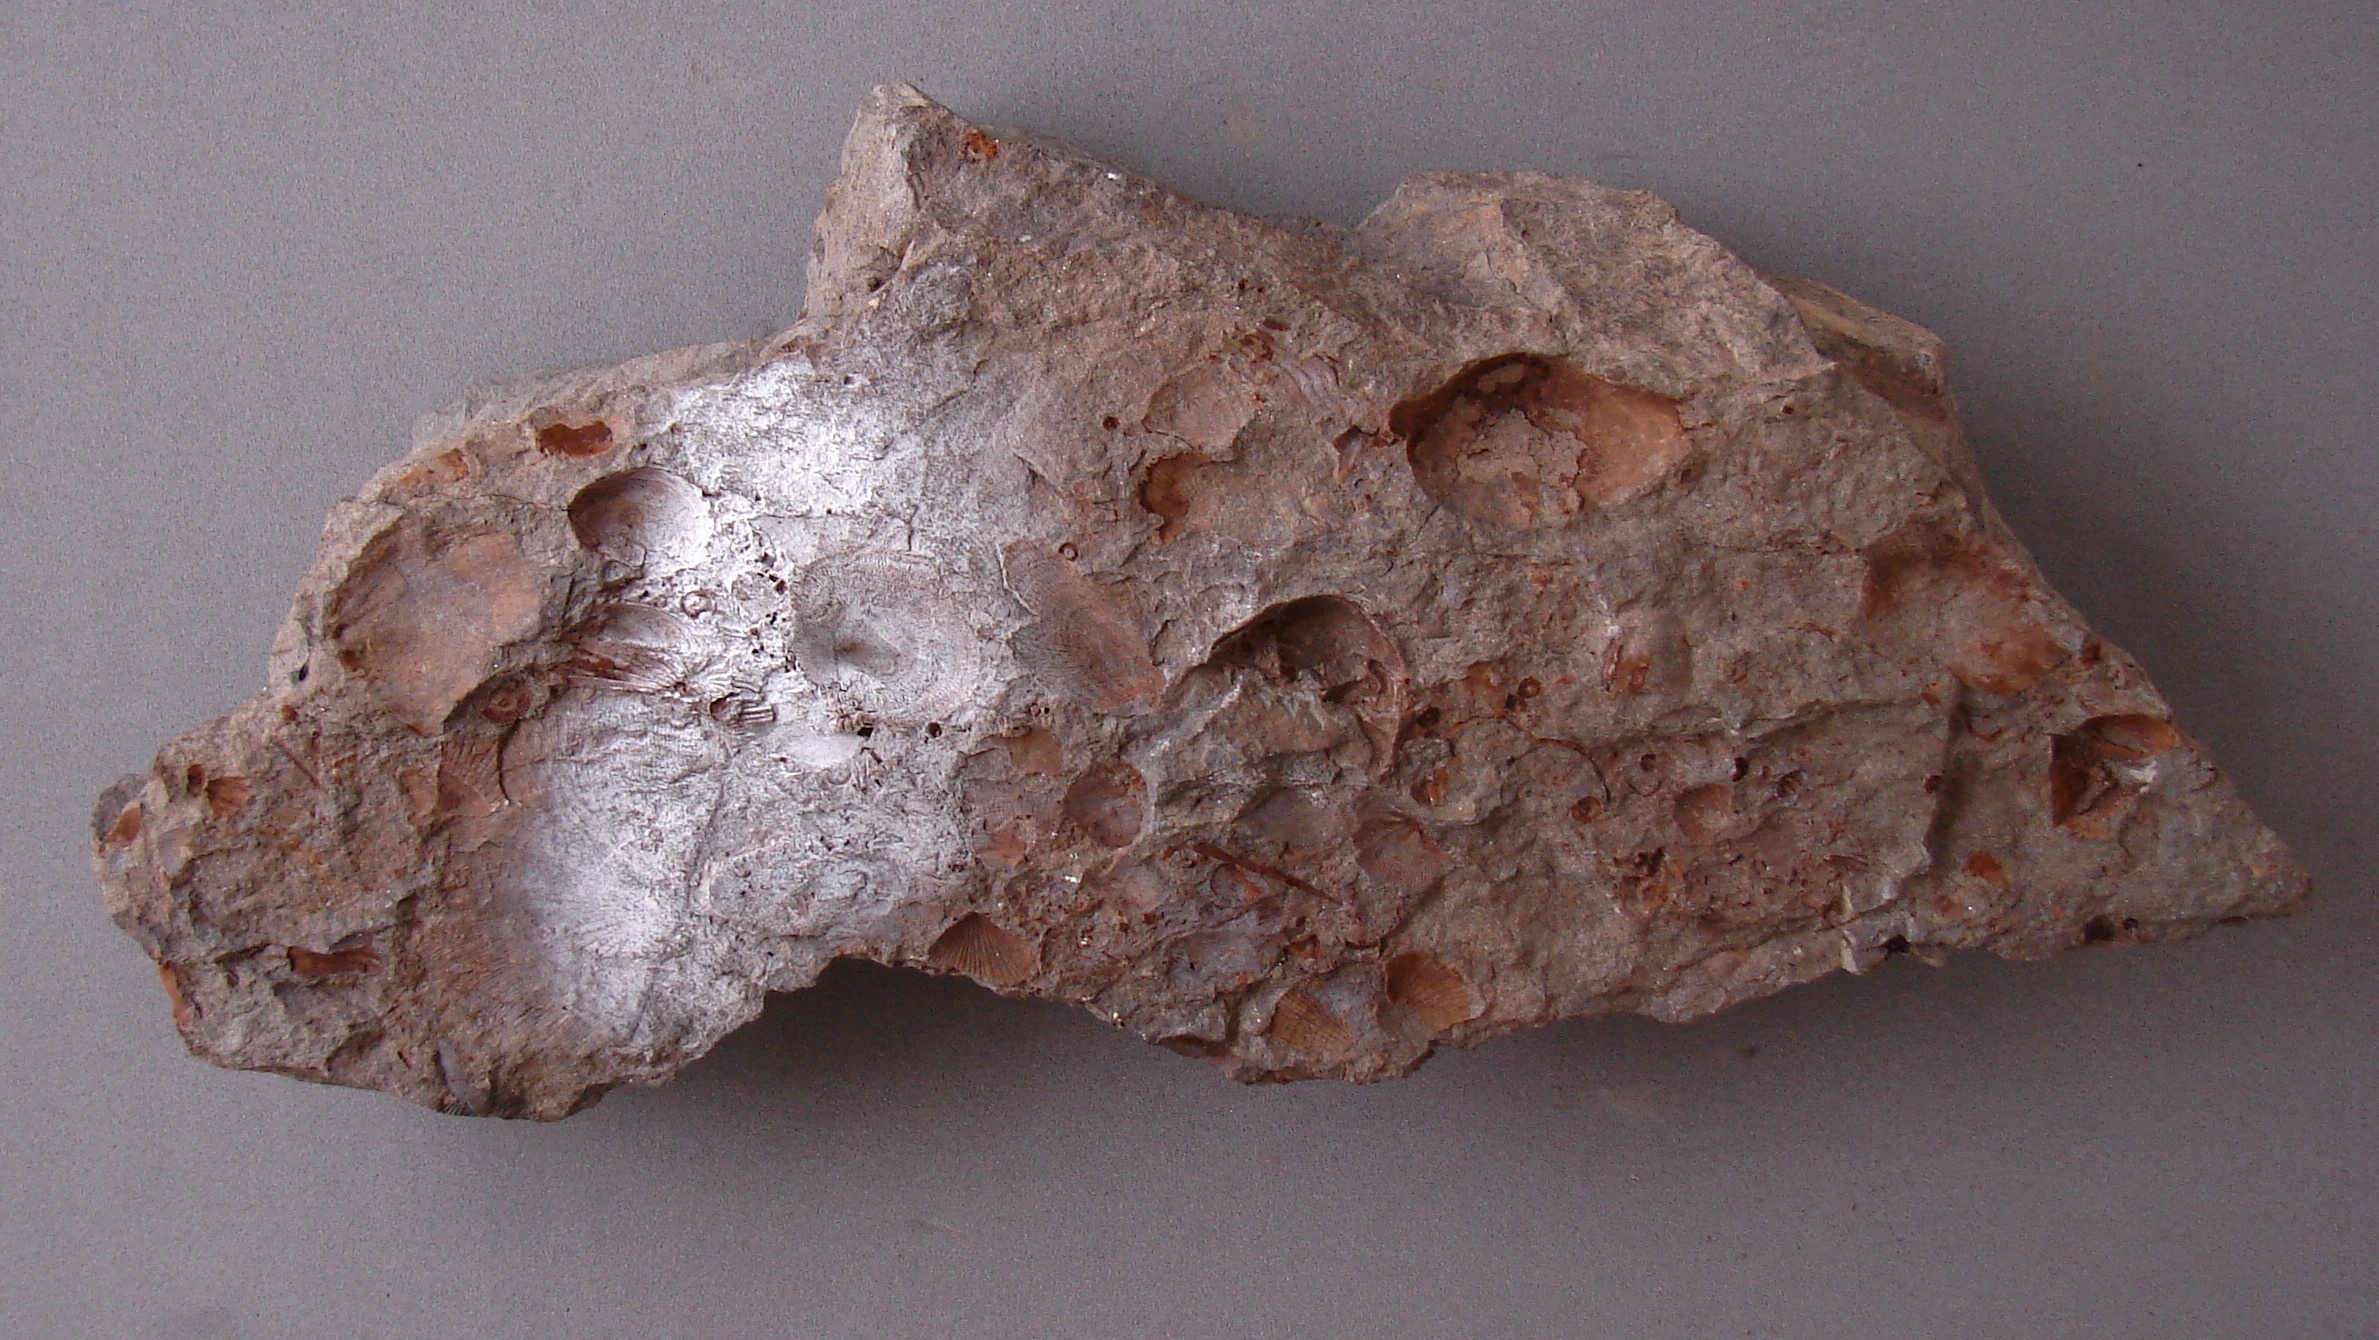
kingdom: Animalia
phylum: Brachiopoda
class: Craniata
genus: Merglia
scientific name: Merglia
